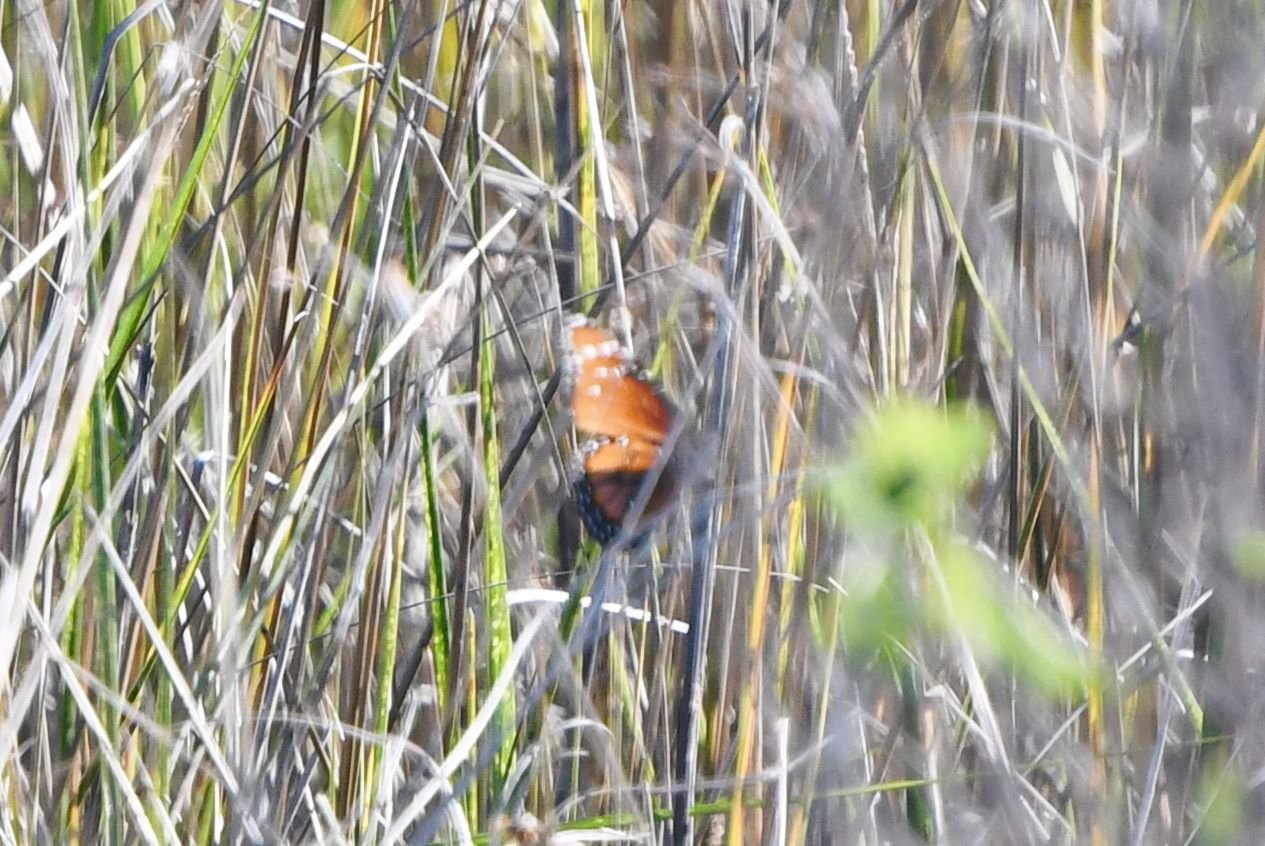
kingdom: Animalia
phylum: Arthropoda
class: Insecta
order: Lepidoptera
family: Nymphalidae
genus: Danaus
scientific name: Danaus gilippus
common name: Queen
